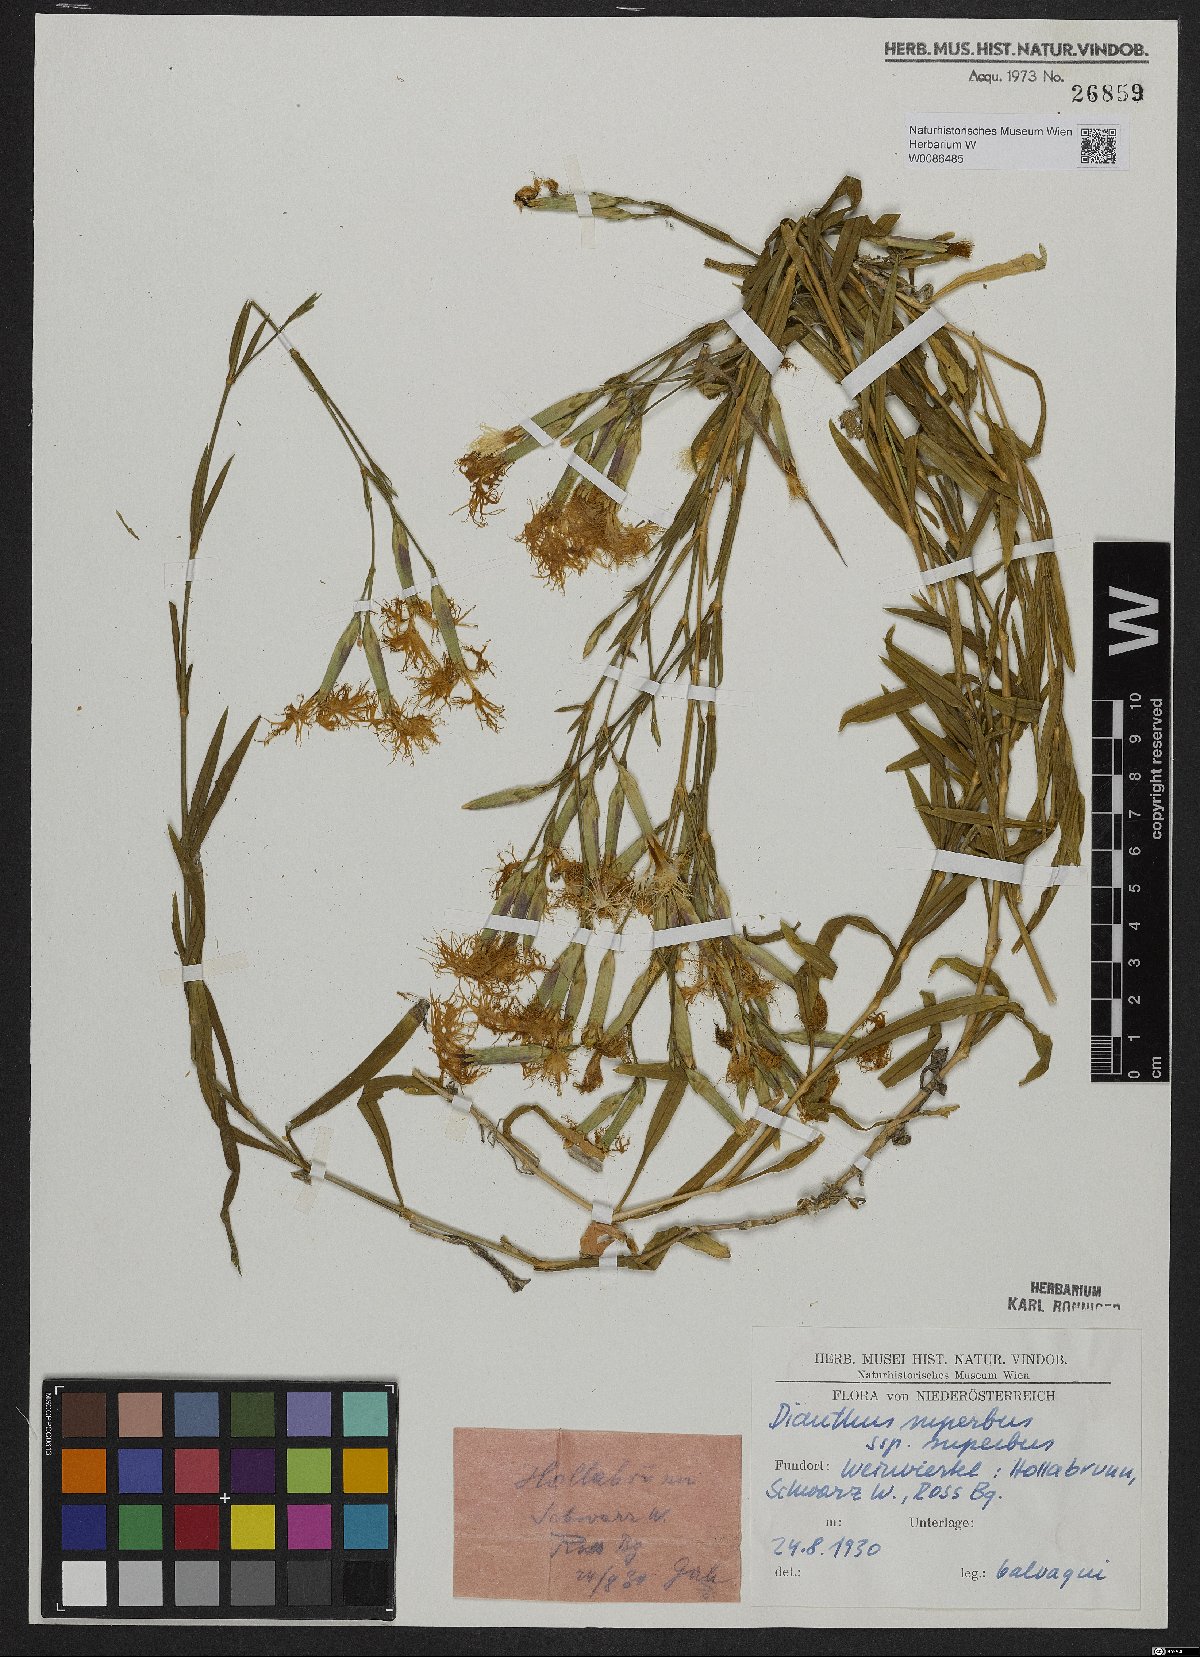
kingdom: Plantae
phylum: Tracheophyta
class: Magnoliopsida
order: Caryophyllales
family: Caryophyllaceae
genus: Dianthus
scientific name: Dianthus superbus
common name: Fringed pink
